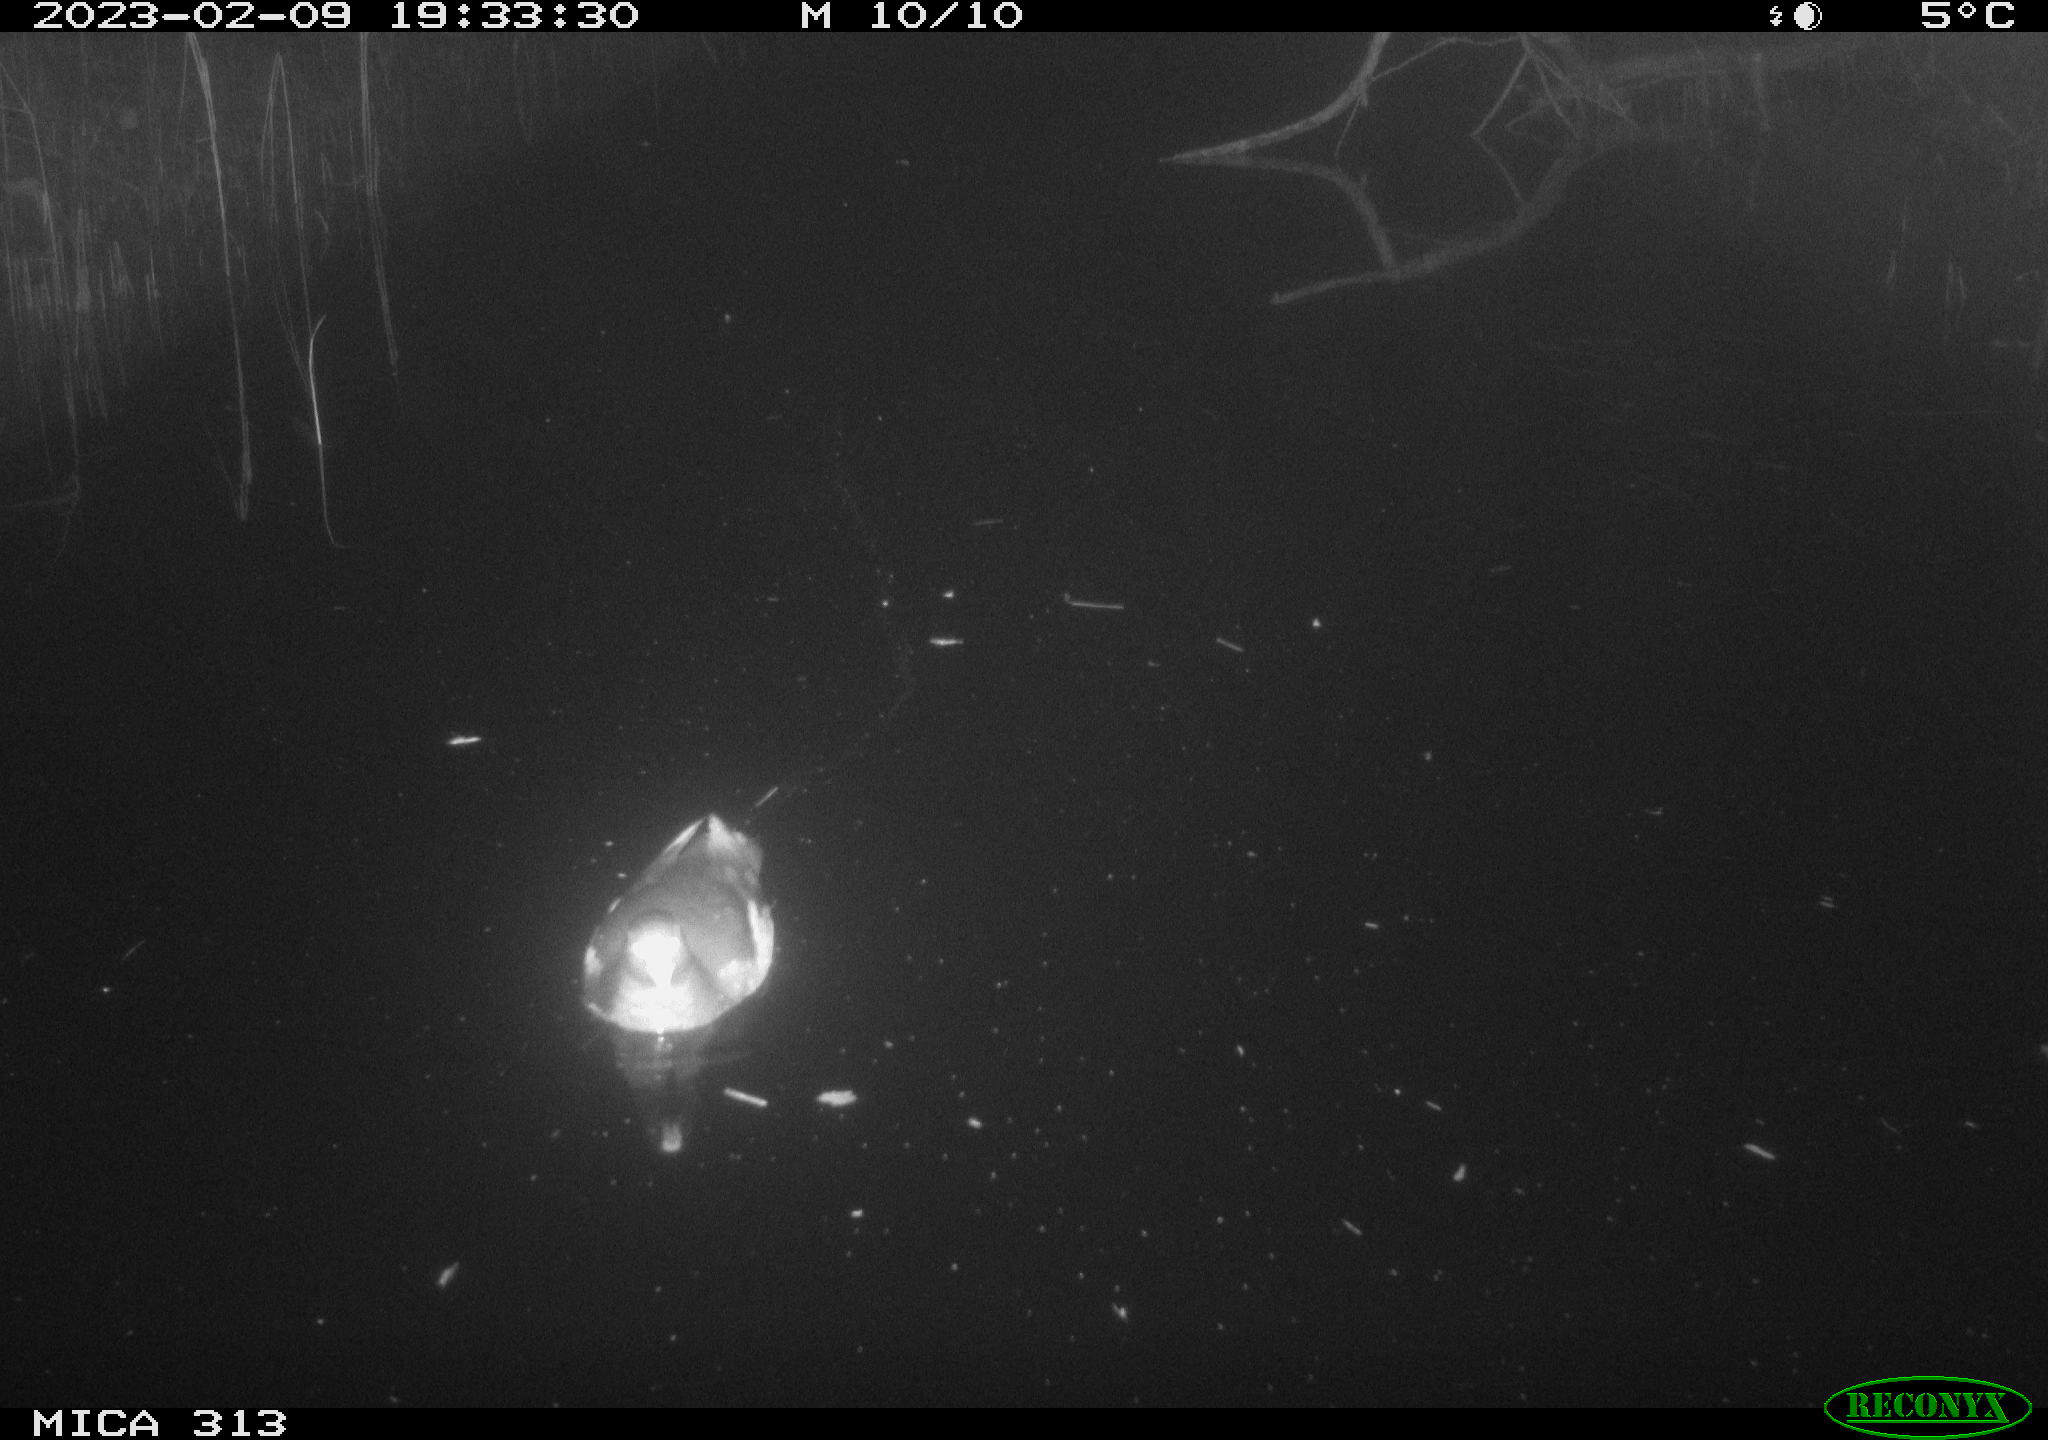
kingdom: Animalia
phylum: Chordata
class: Aves
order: Gruiformes
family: Rallidae
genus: Gallinula
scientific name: Gallinula chloropus
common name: Common moorhen
